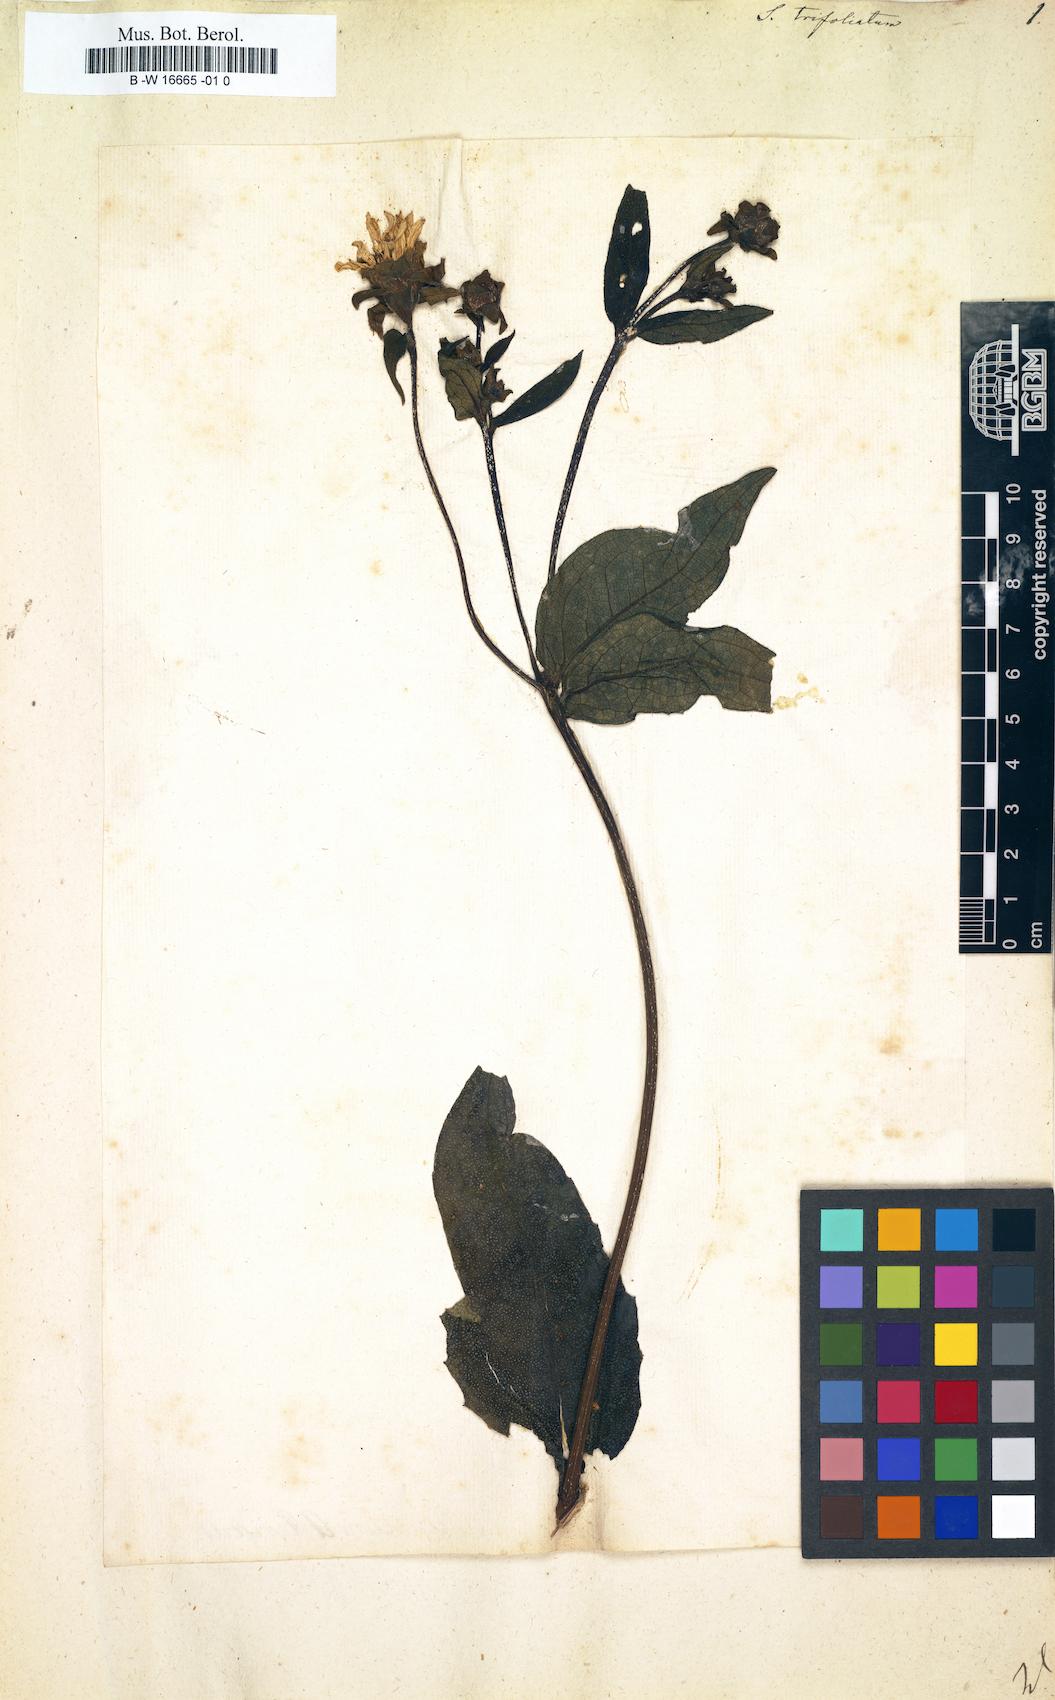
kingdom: Plantae
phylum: Tracheophyta
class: Magnoliopsida
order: Asterales
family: Asteraceae
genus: Silphium
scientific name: Silphium asteriscus
